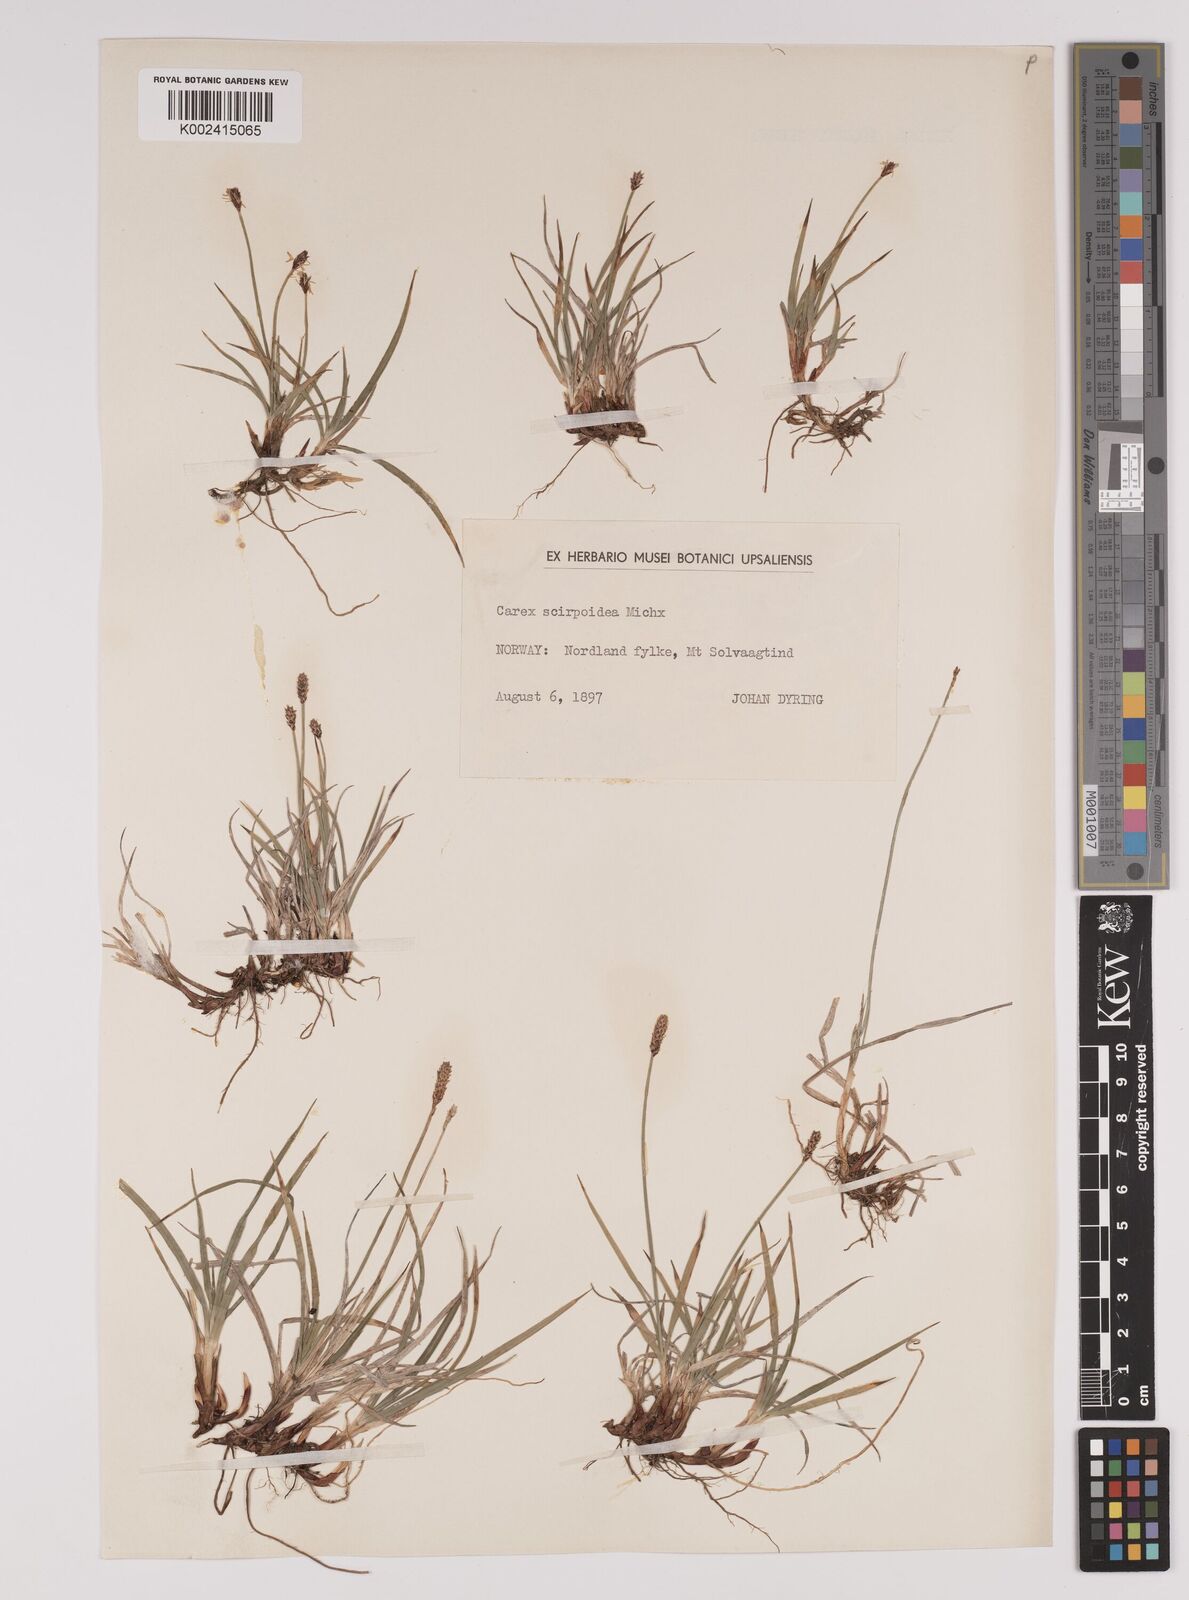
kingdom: Plantae
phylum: Tracheophyta
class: Liliopsida
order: Poales
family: Cyperaceae
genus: Carex
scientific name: Carex
